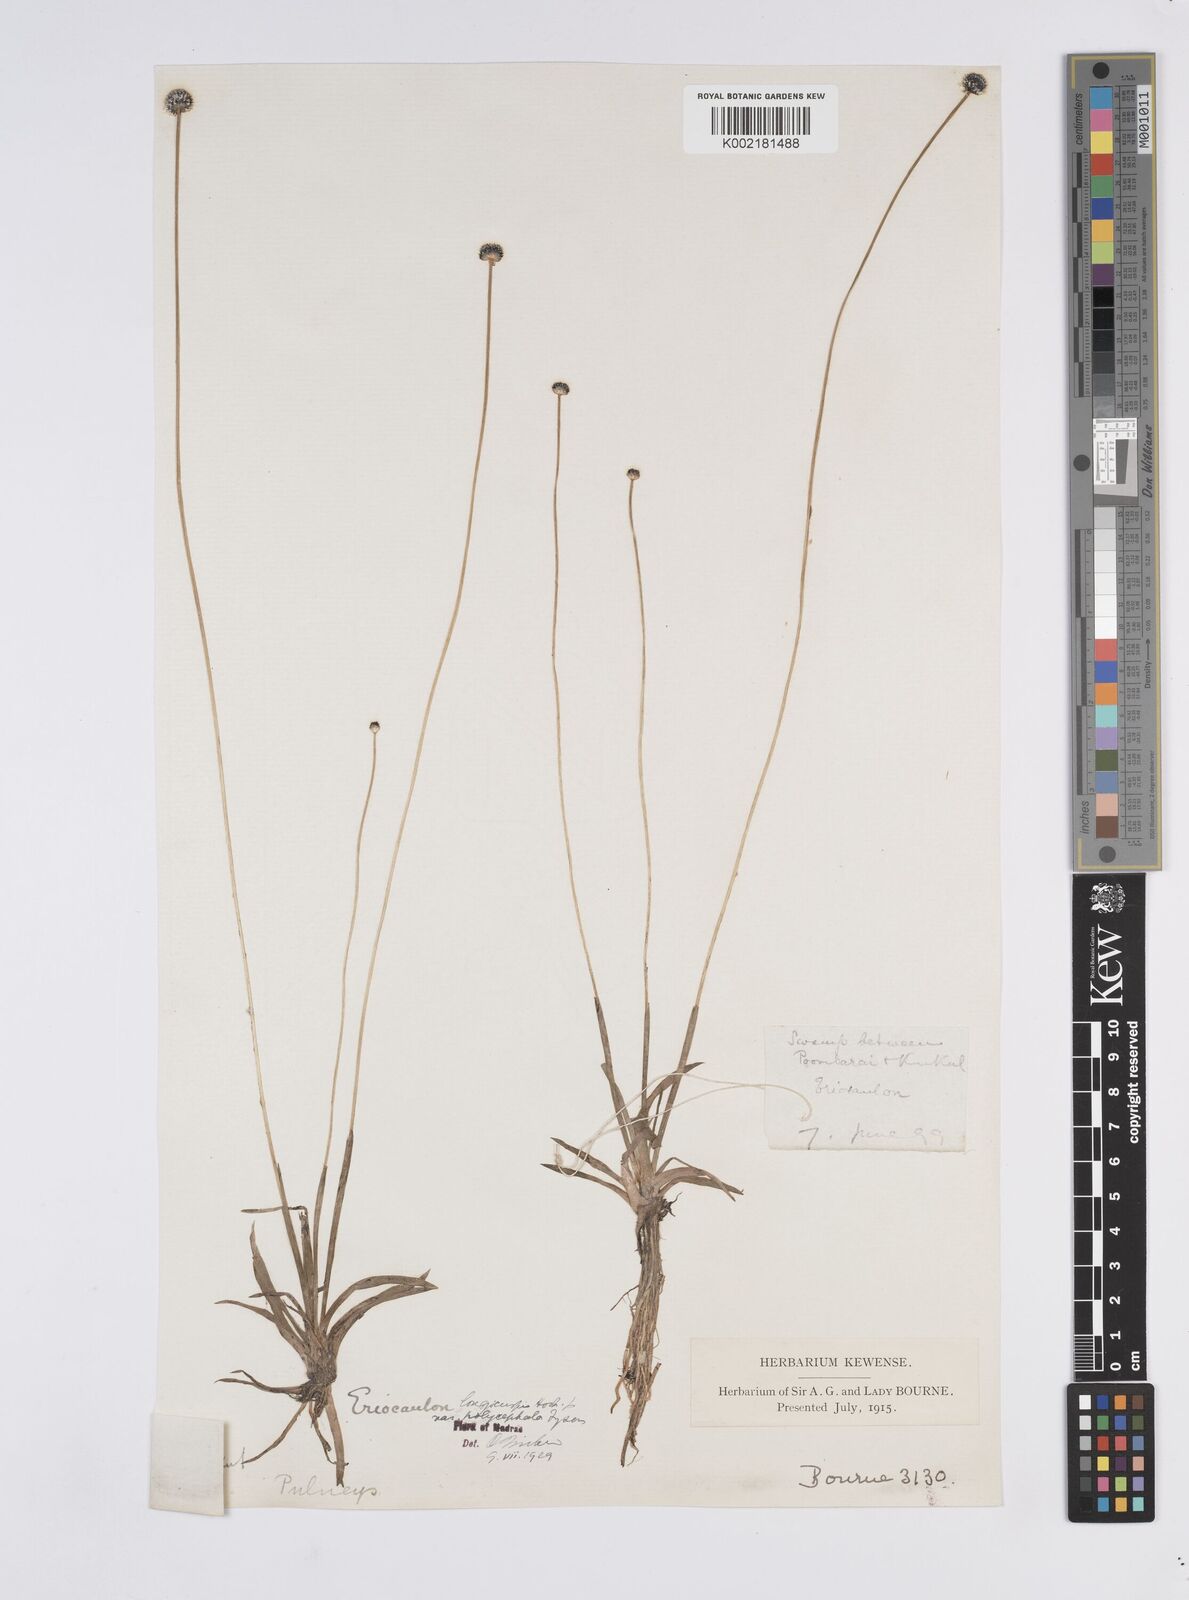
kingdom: Plantae
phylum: Tracheophyta
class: Liliopsida
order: Poales
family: Eriocaulaceae
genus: Eriocaulon
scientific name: Eriocaulon longicuspe
